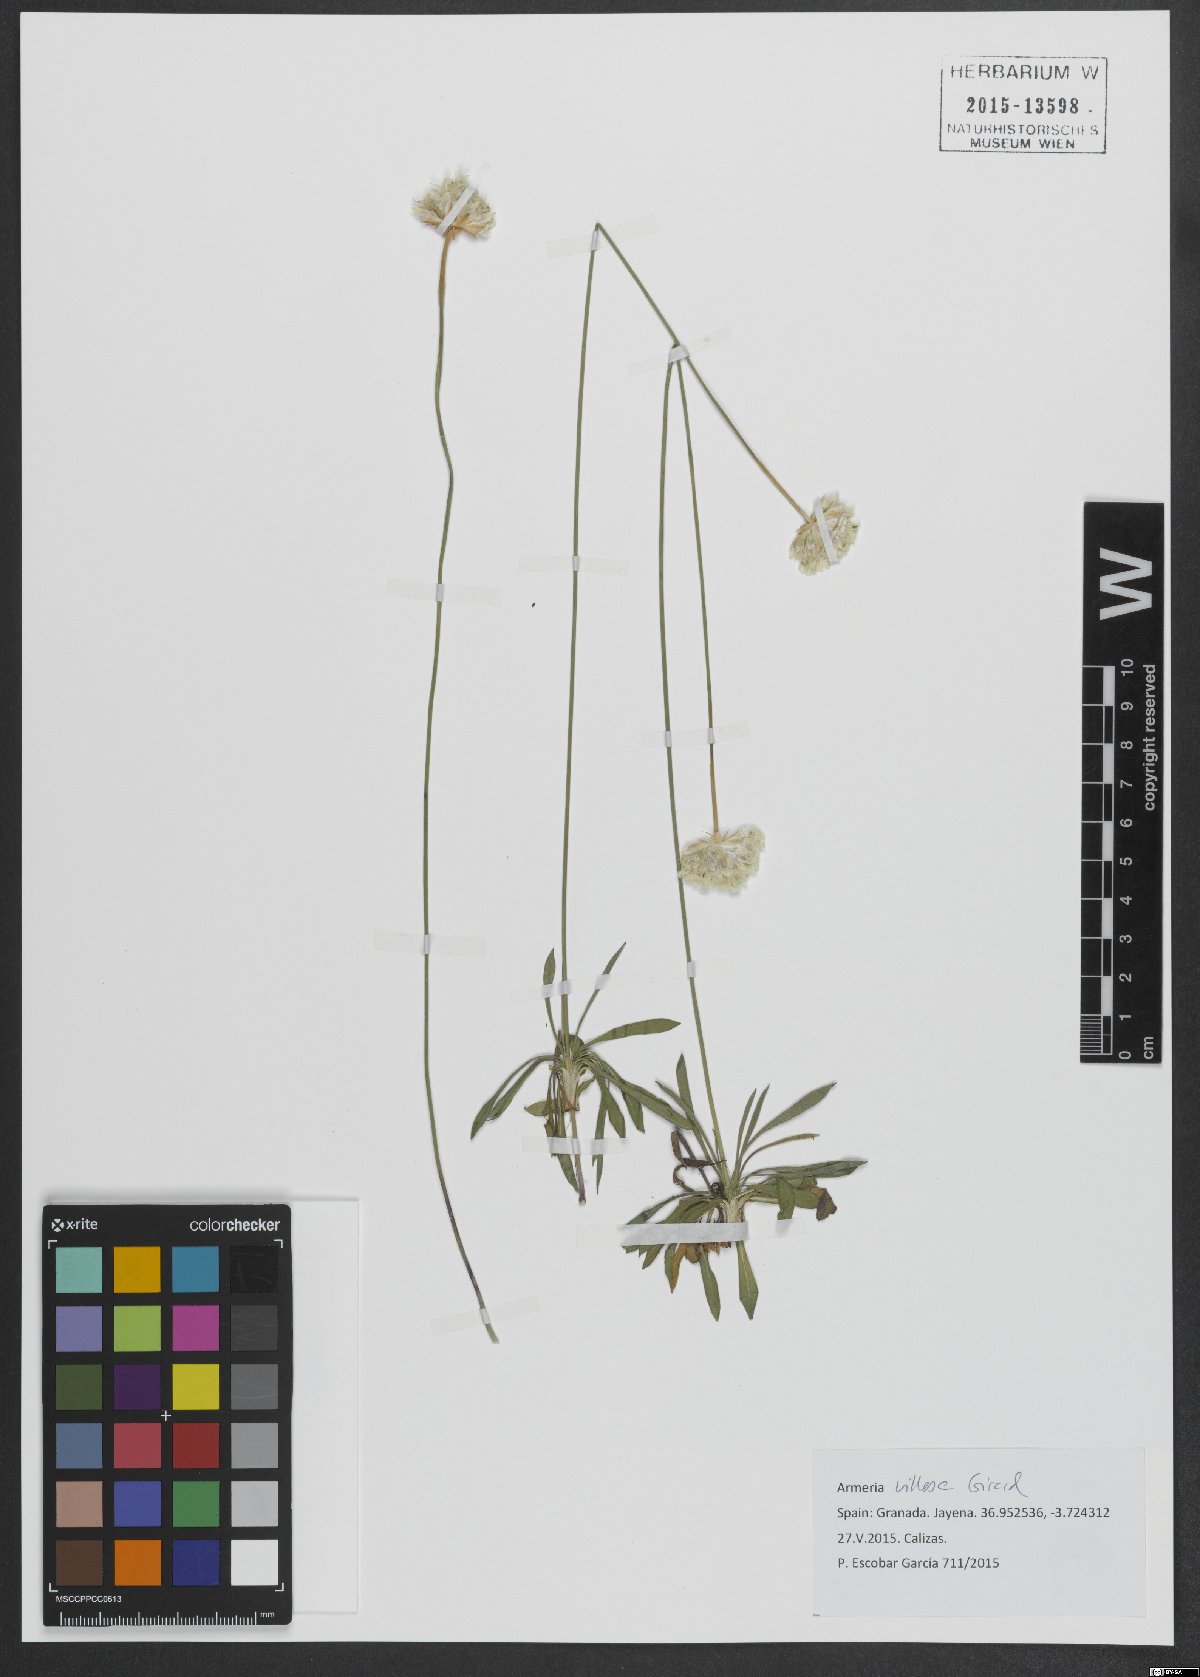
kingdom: Plantae
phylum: Tracheophyta
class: Magnoliopsida
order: Caryophyllales
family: Plumbaginaceae
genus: Armeria
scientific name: Armeria villosa
